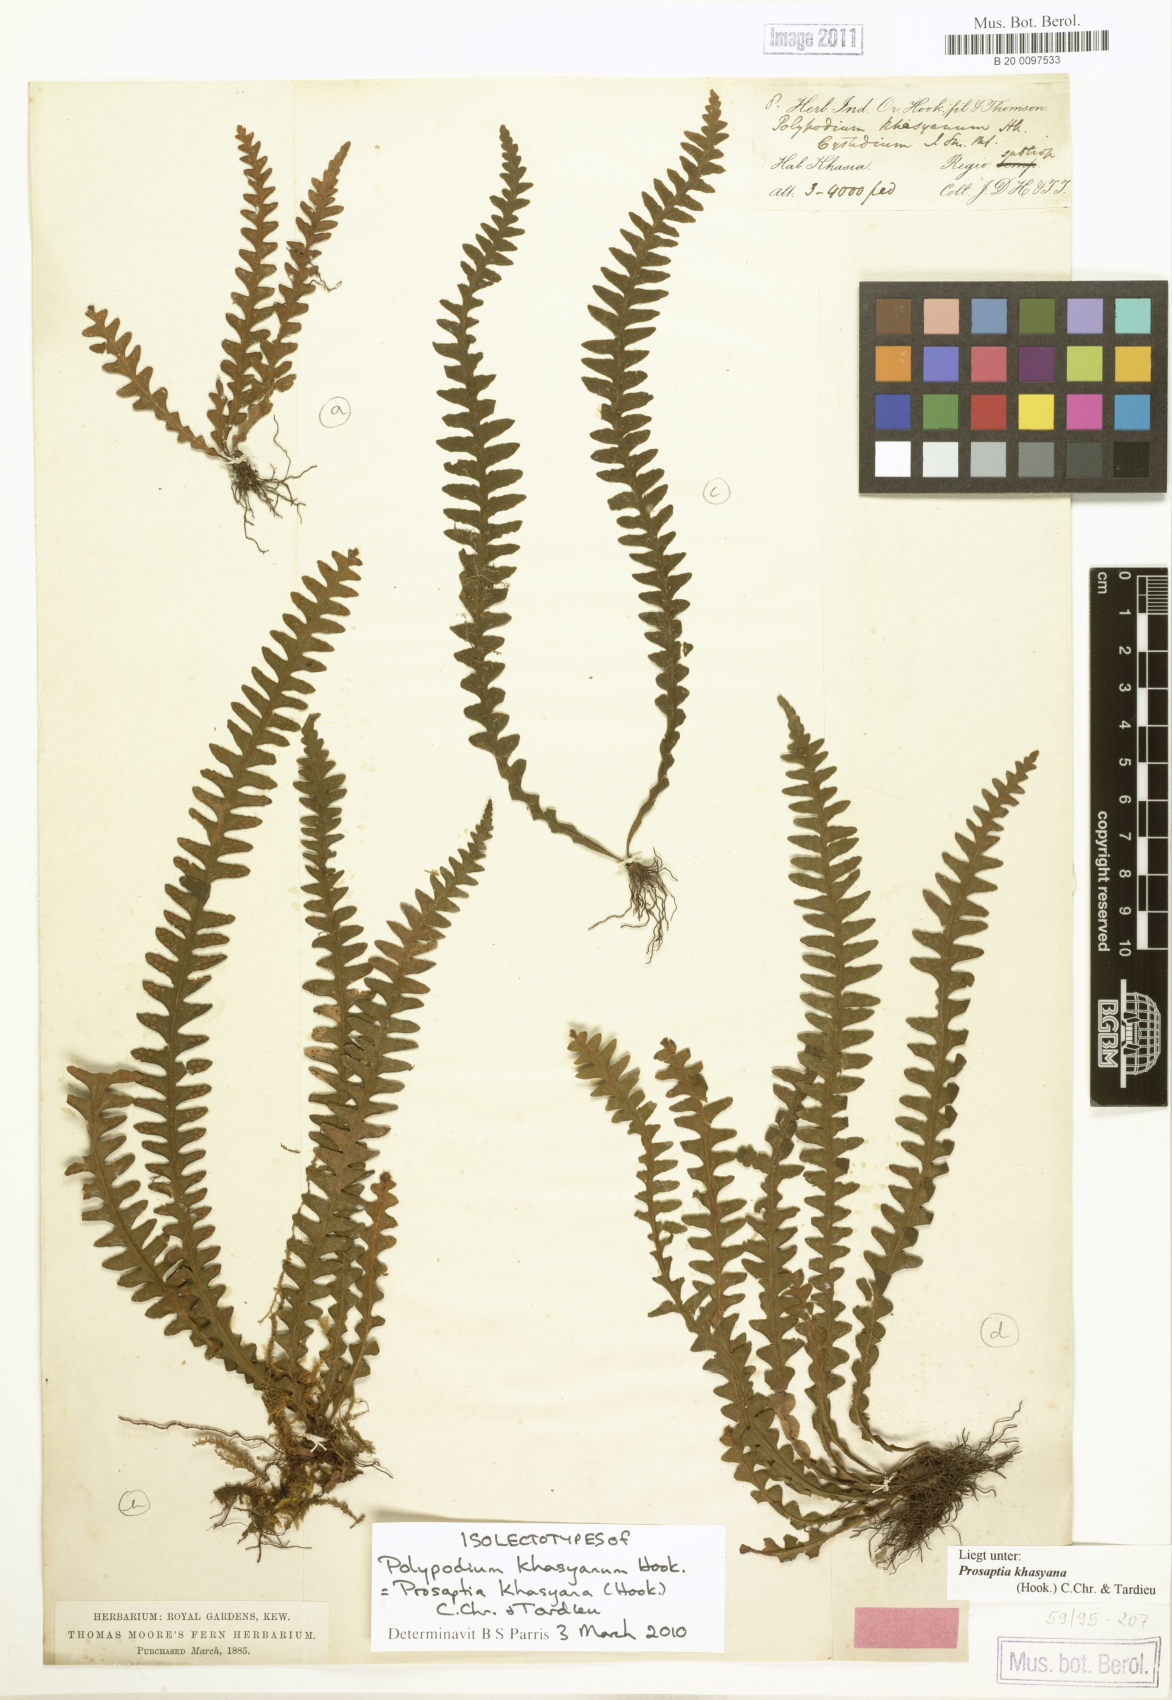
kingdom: Plantae
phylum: Tracheophyta
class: Polypodiopsida
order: Polypodiales
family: Polypodiaceae
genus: Polypodium
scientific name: Polypodium khasyanum
